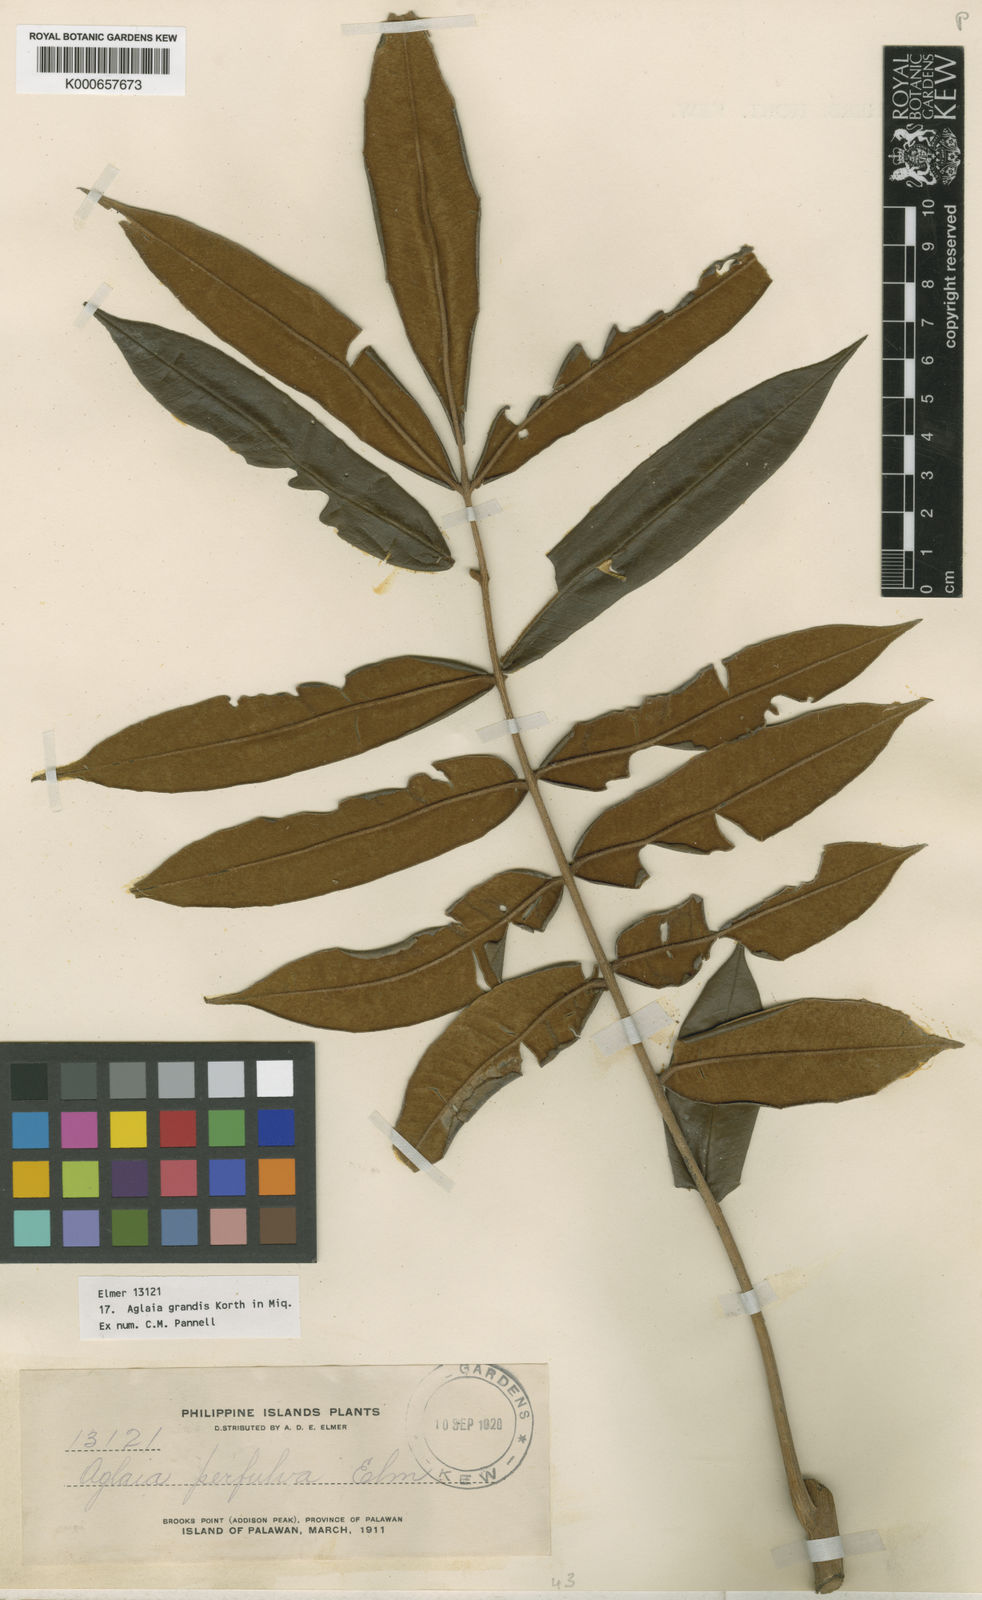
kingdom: Plantae
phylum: Tracheophyta
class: Magnoliopsida
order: Sapindales
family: Meliaceae
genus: Aglaia
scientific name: Aglaia
